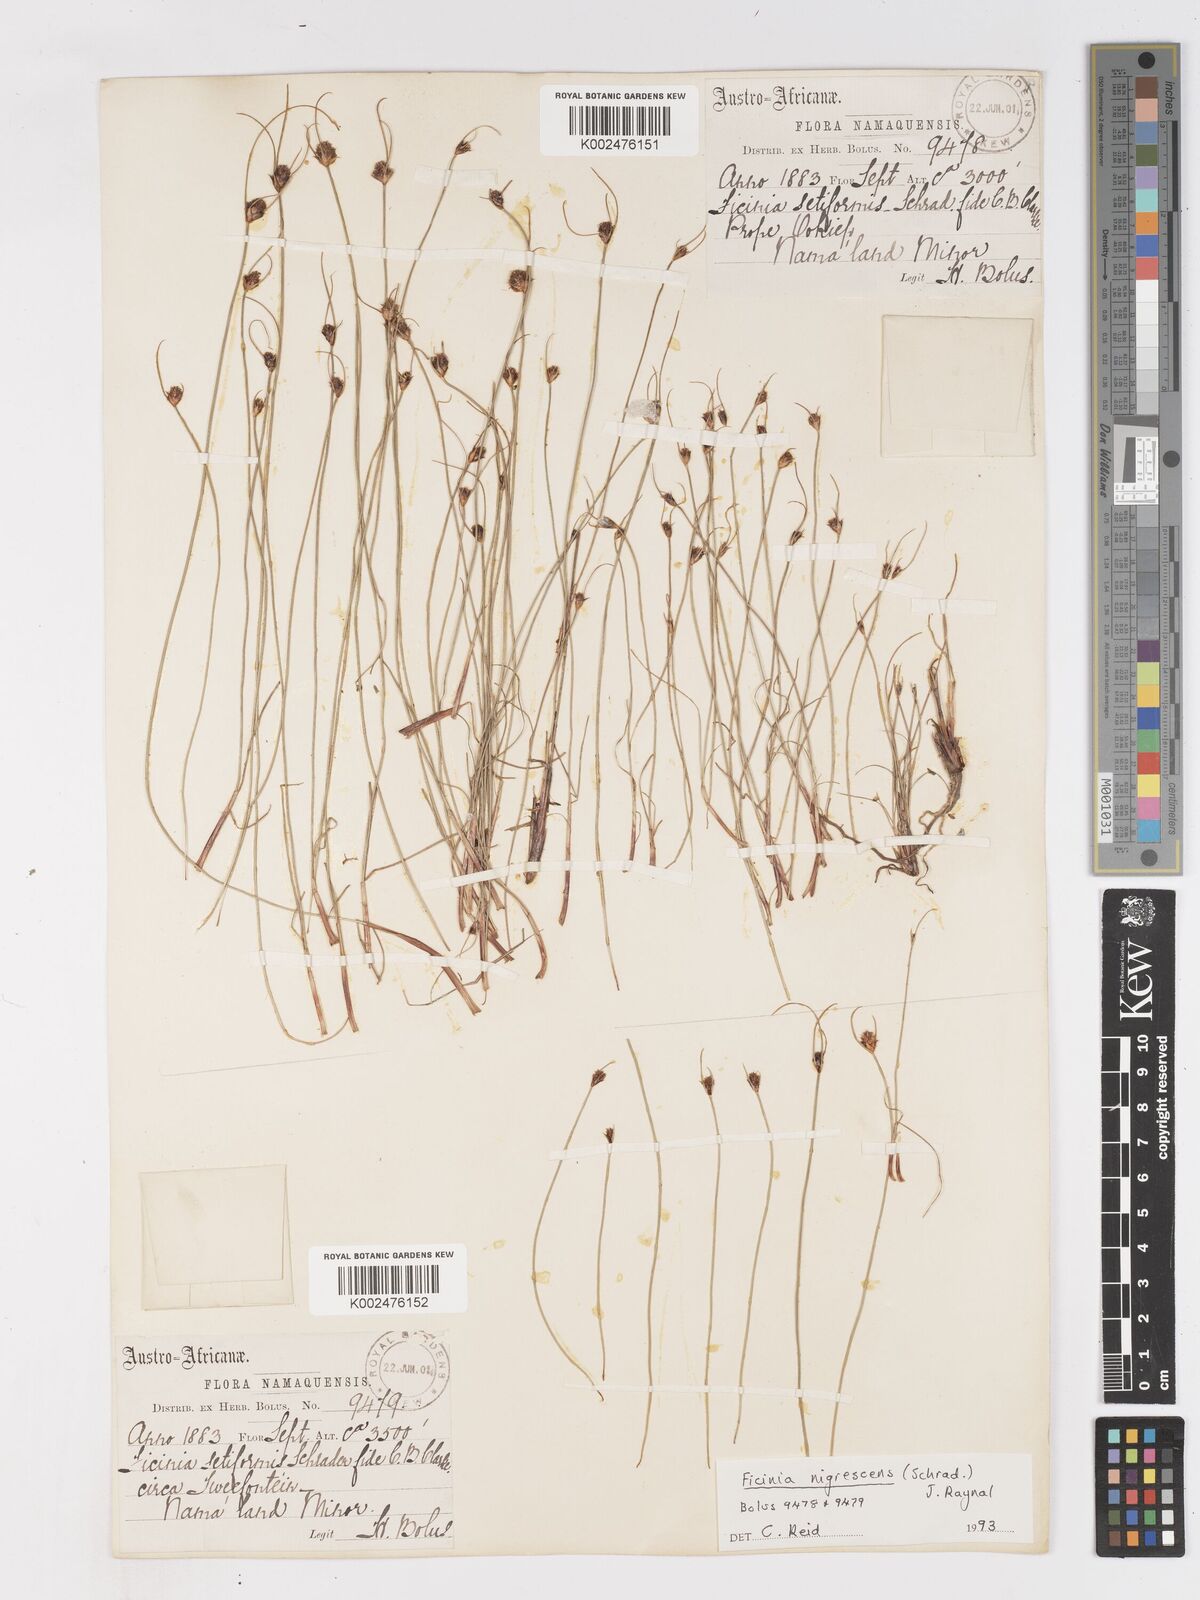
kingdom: Plantae
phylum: Tracheophyta
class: Liliopsida
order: Poales
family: Cyperaceae
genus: Ficinia
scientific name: Ficinia nigrescens
